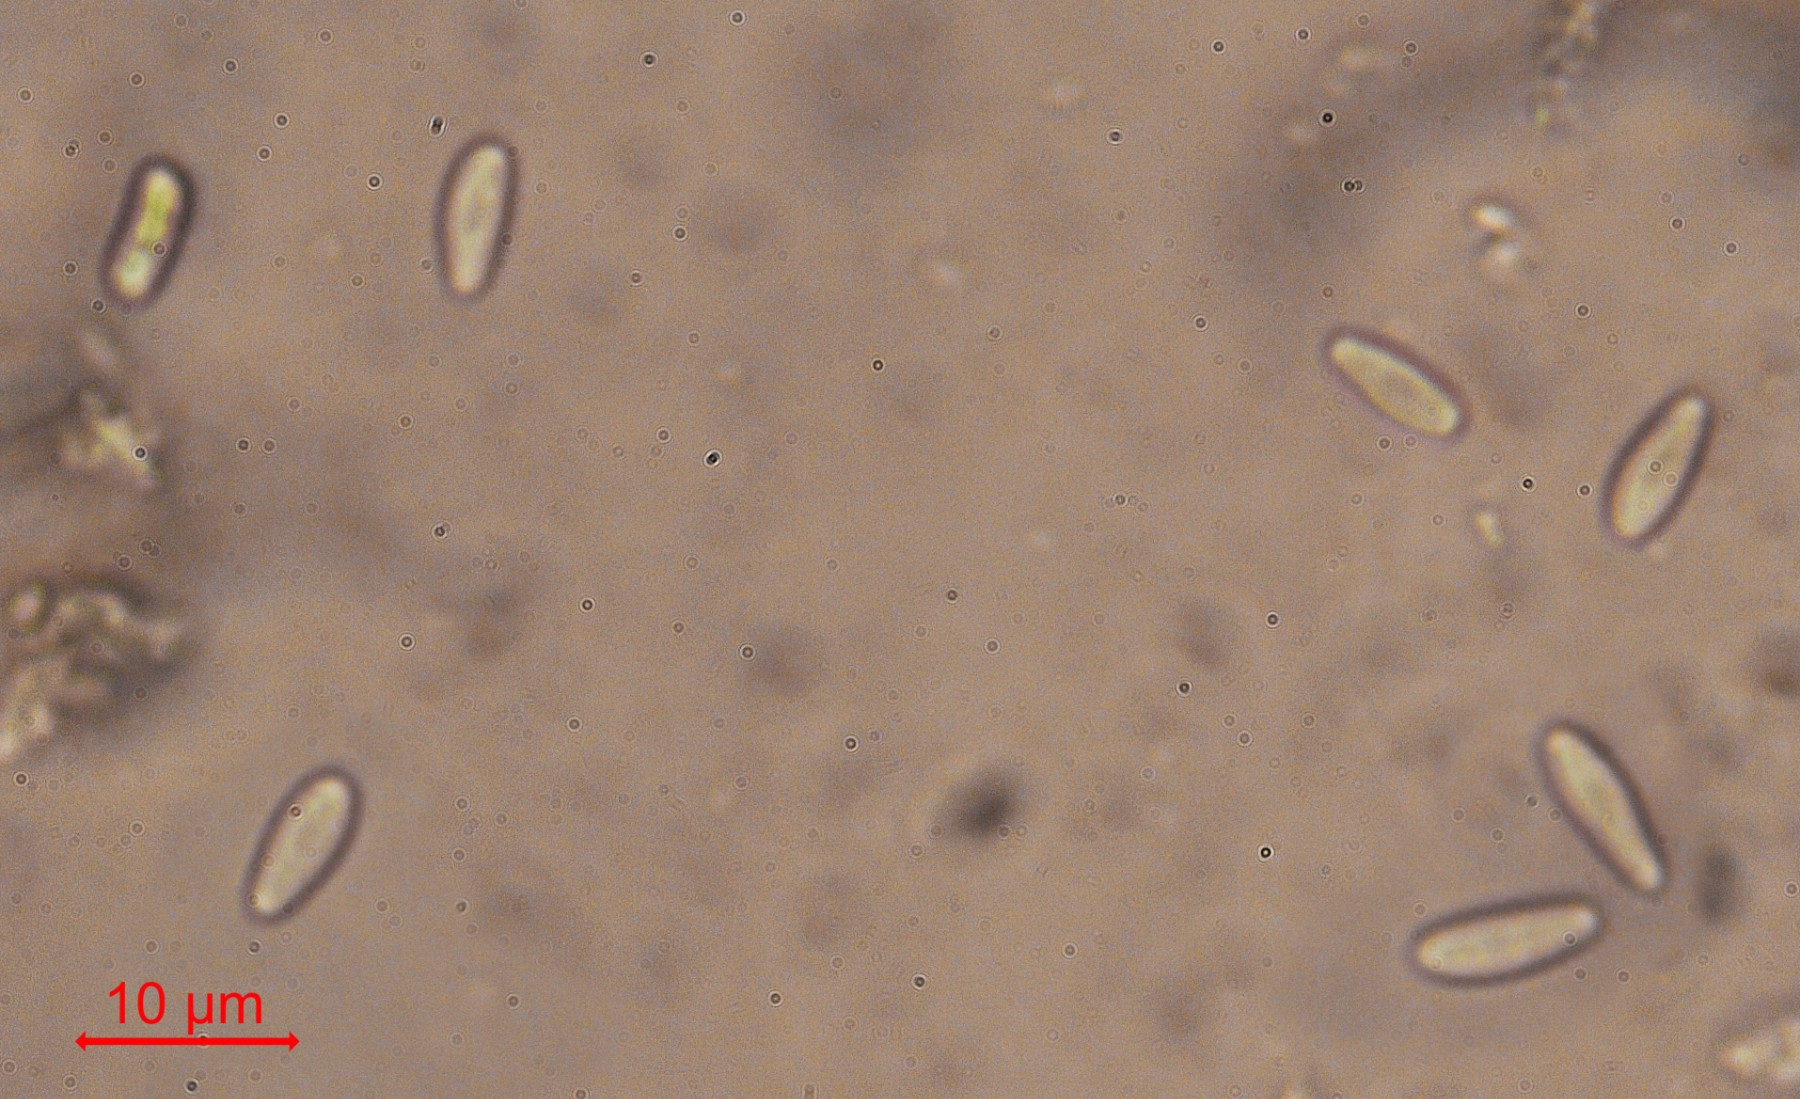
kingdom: Fungi
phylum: Ascomycota
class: Leotiomycetes
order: Helotiales
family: Mollisiaceae
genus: Mollisia
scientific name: Mollisia ligni
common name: ved-gråskive
